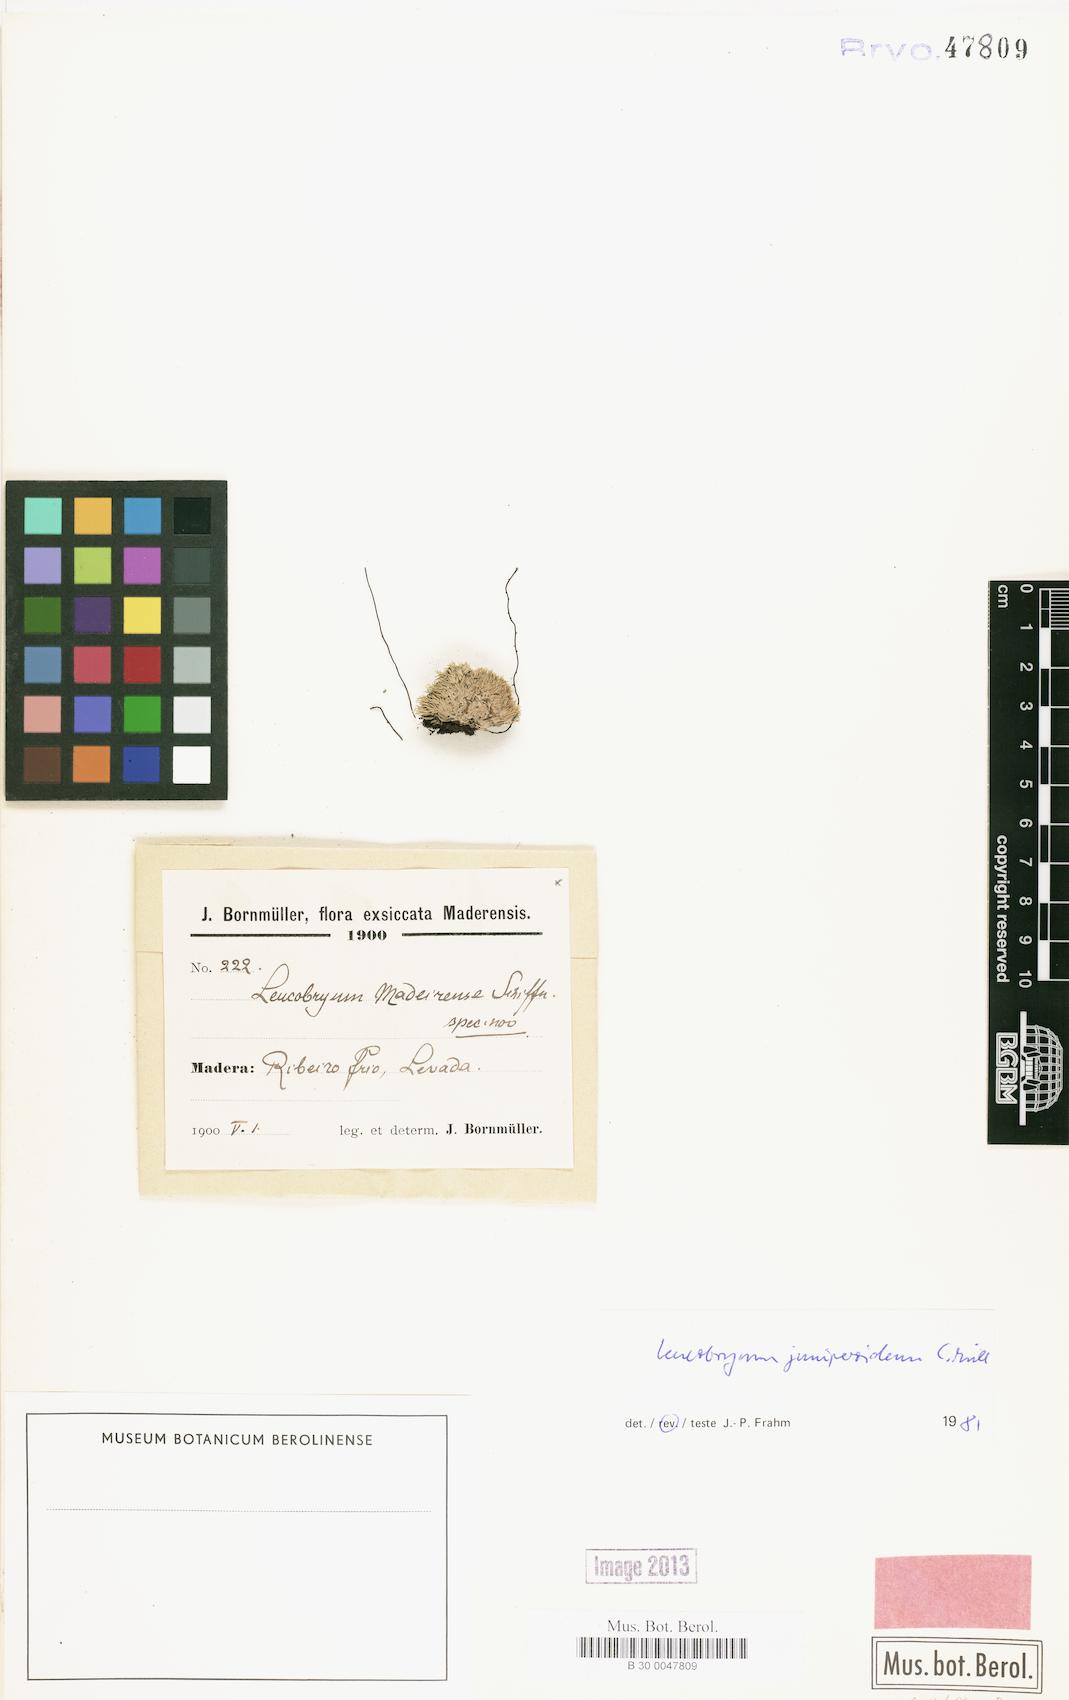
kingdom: Plantae
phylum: Bryophyta
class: Bryopsida
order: Dicranales
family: Leucobryaceae
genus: Leucobryum
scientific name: Leucobryum juniperoideum
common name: Smaller white-moss
